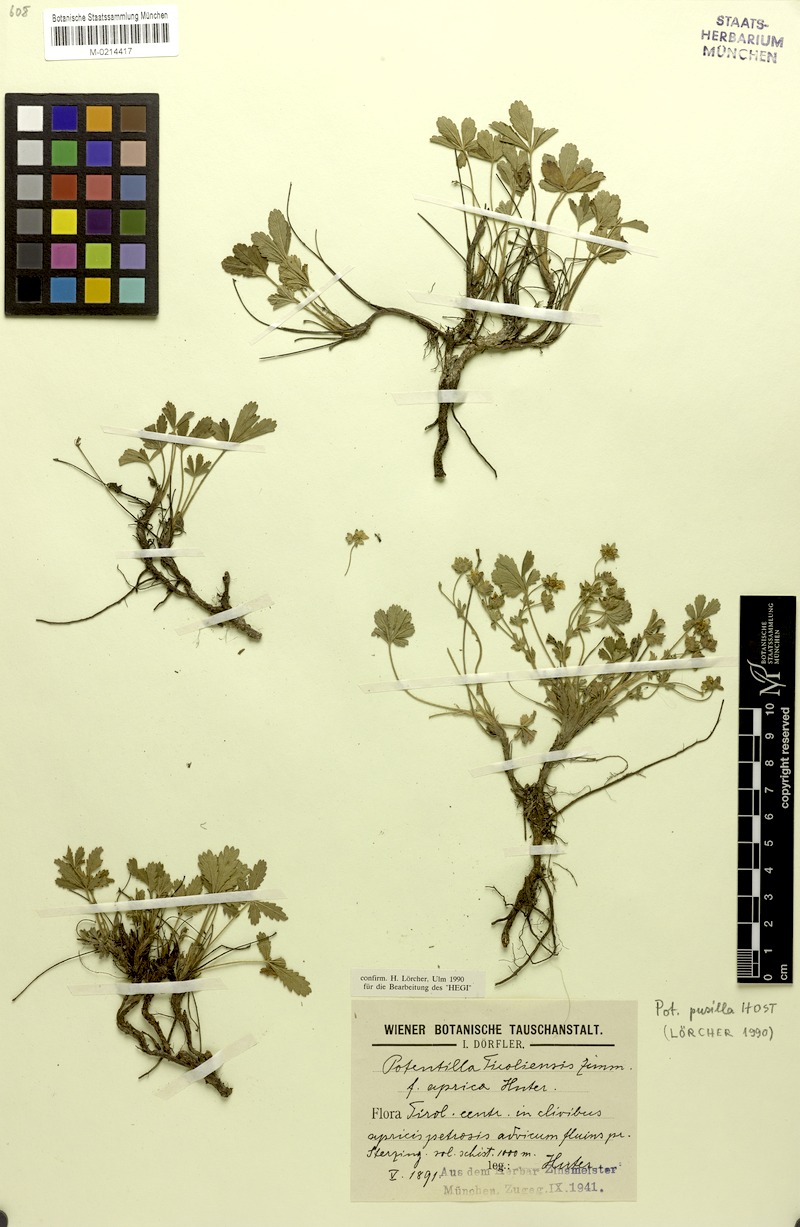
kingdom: Plantae
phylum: Tracheophyta
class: Magnoliopsida
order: Rosales
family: Rosaceae
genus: Potentilla
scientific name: Potentilla pusilla
